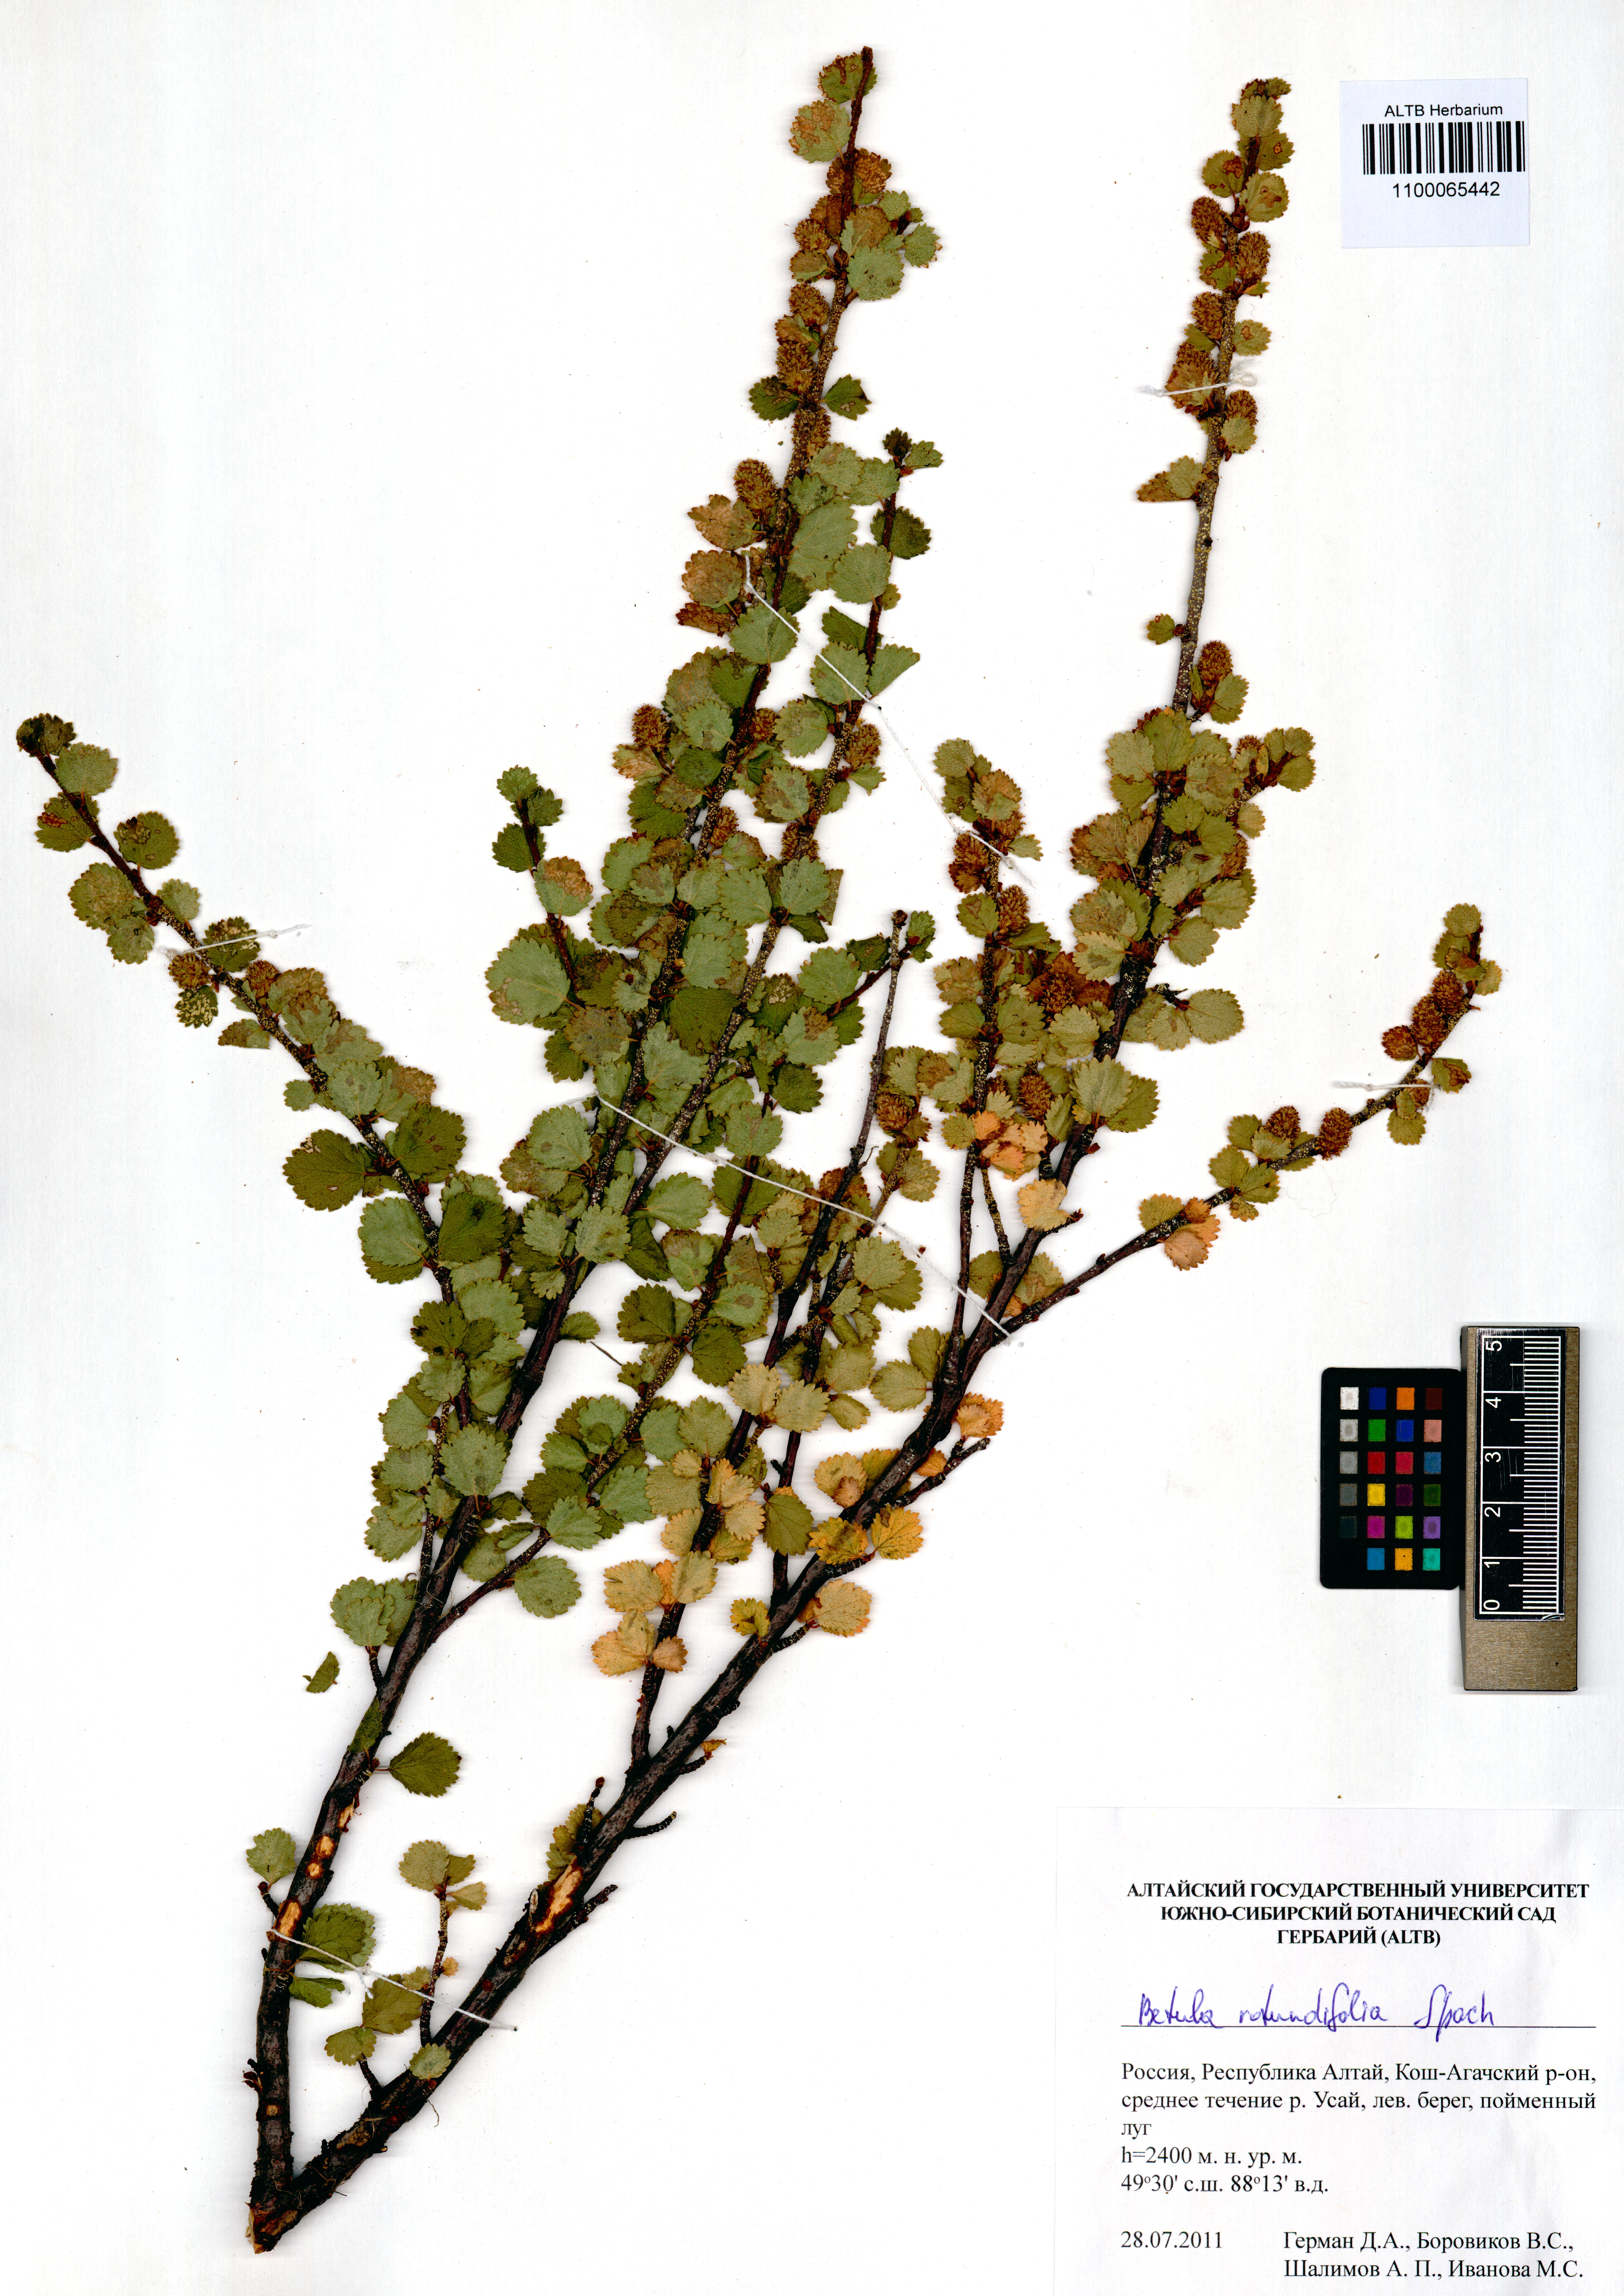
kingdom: Plantae
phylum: Tracheophyta
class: Magnoliopsida
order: Fagales
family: Betulaceae
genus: Betula
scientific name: Betula glandulosa
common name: Dwarf birch
